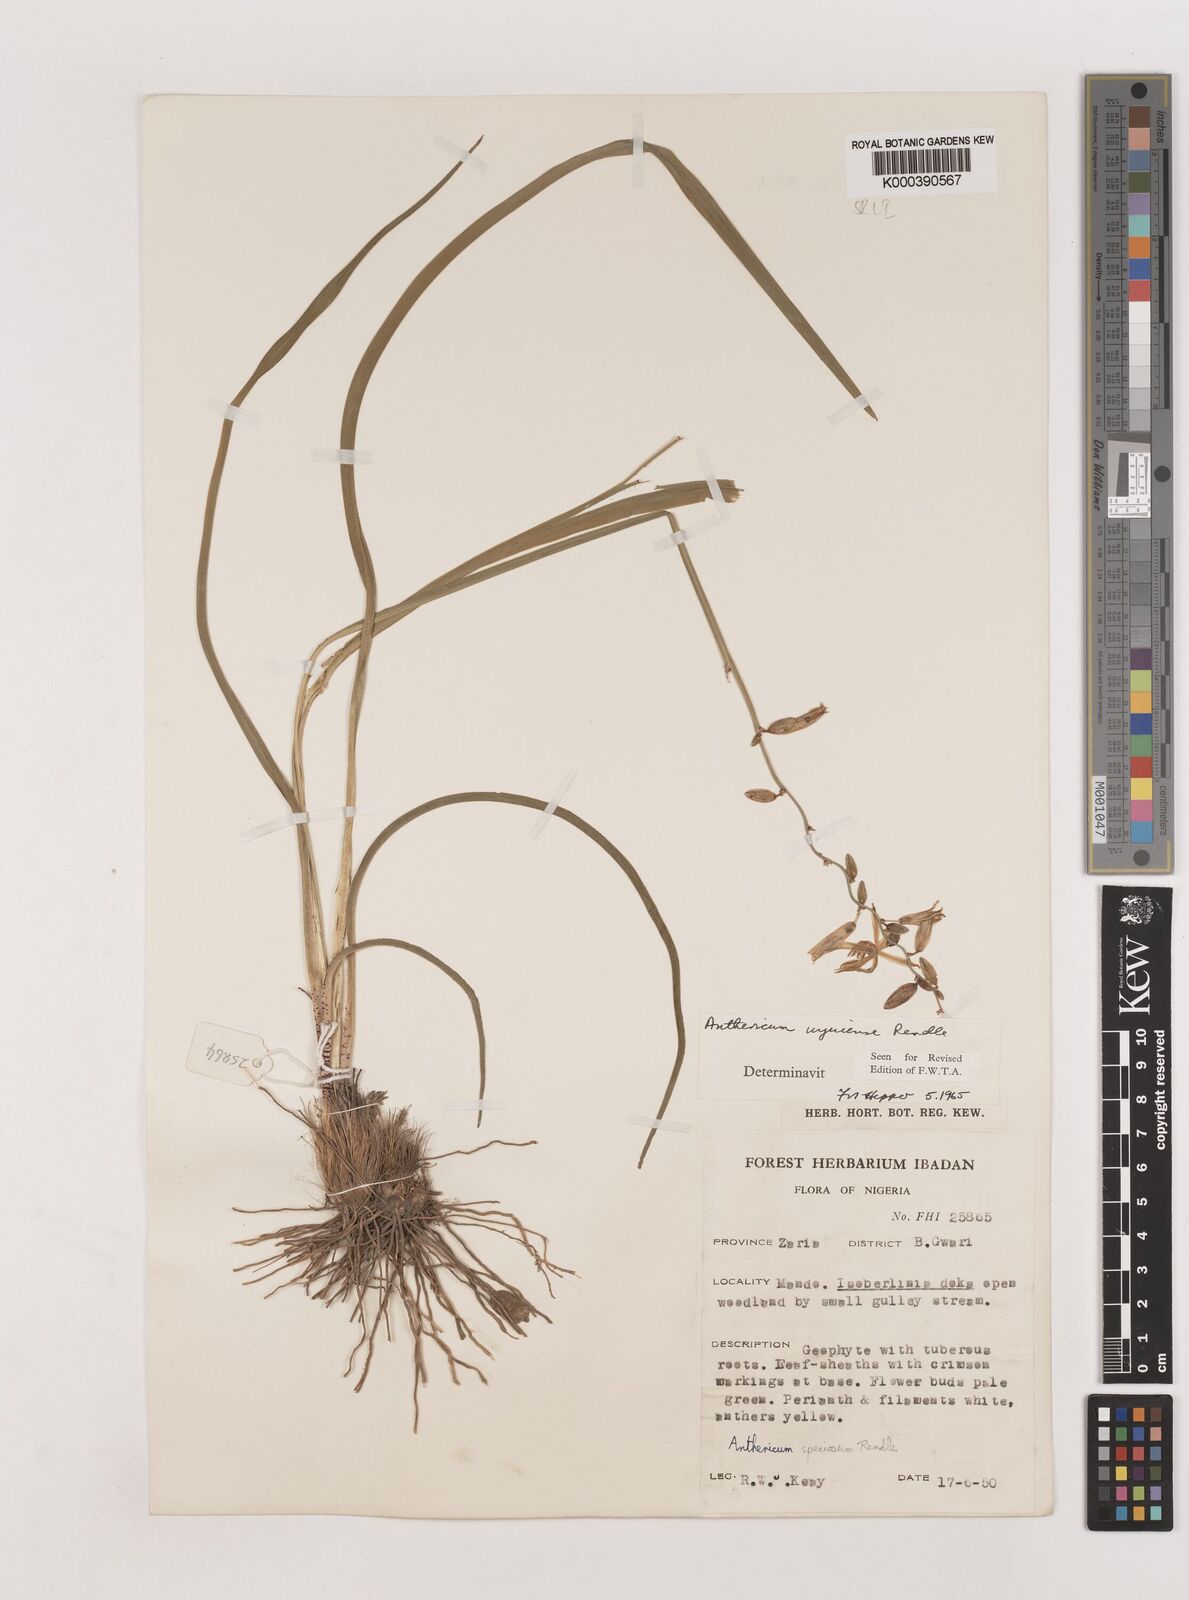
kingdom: Plantae
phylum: Tracheophyta
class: Liliopsida
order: Asparagales
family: Asparagaceae
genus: Chlorophytum
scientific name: Chlorophytum cameronii
